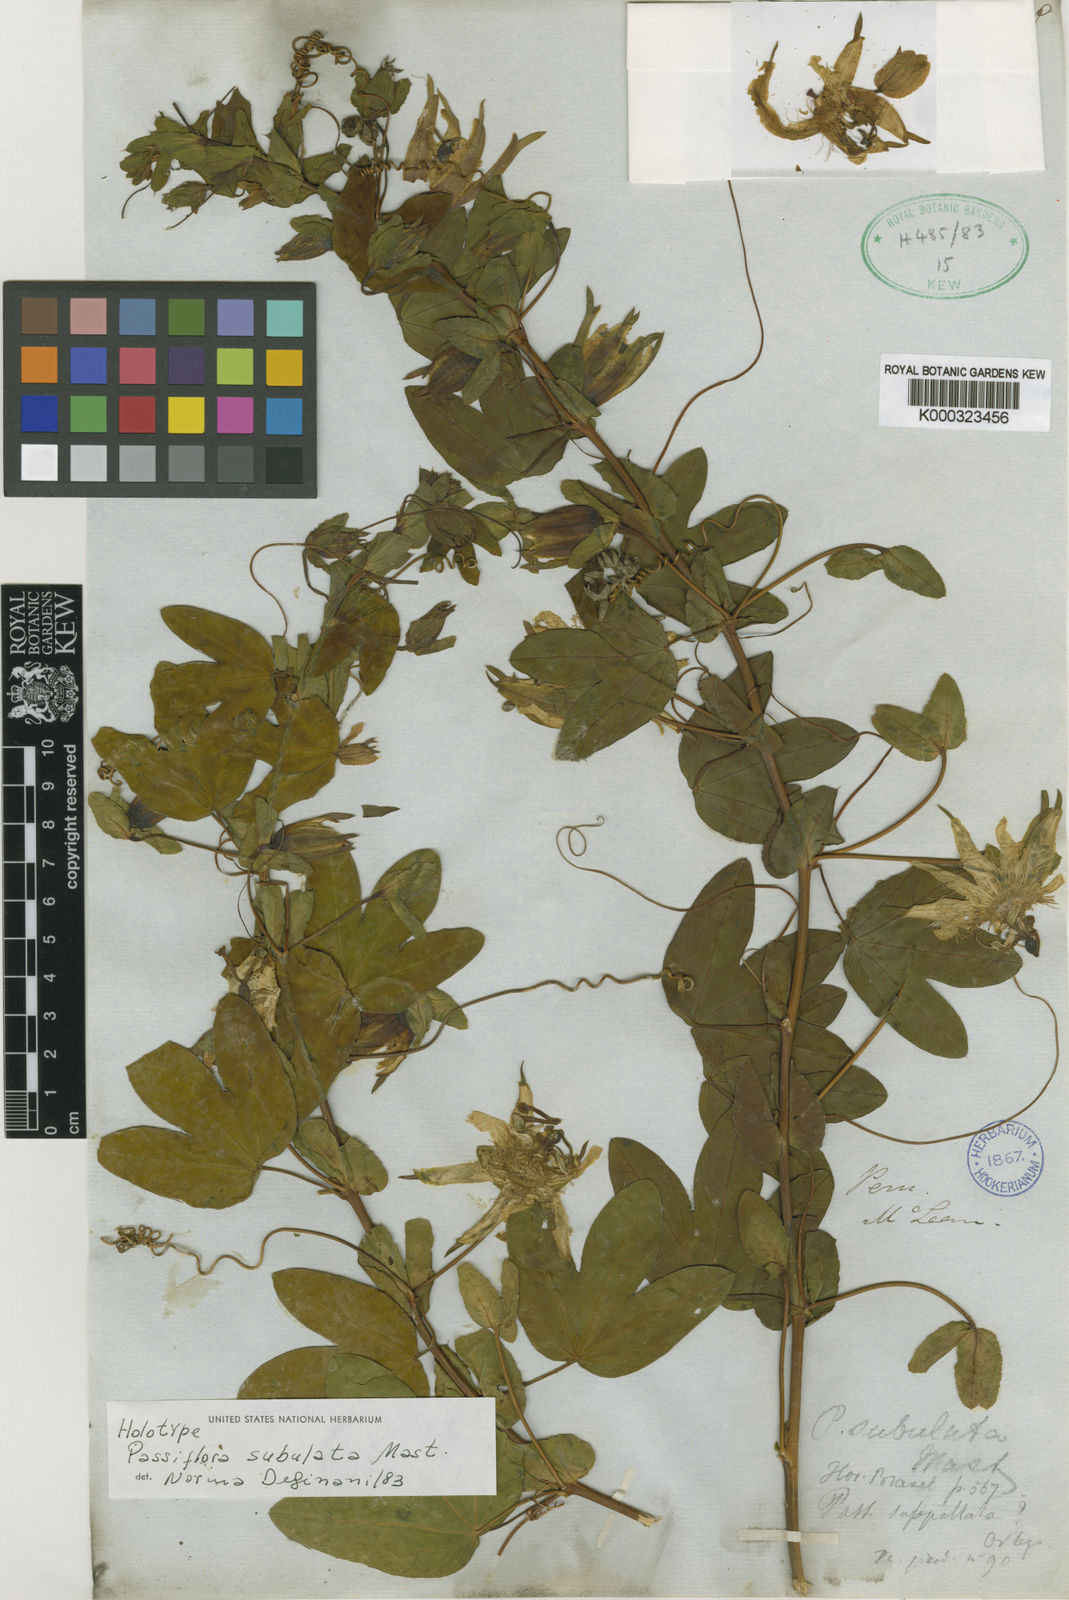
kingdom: Plantae
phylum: Tracheophyta
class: Magnoliopsida
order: Malpighiales
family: Passifloraceae
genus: Passiflora
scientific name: Passiflora subulata
